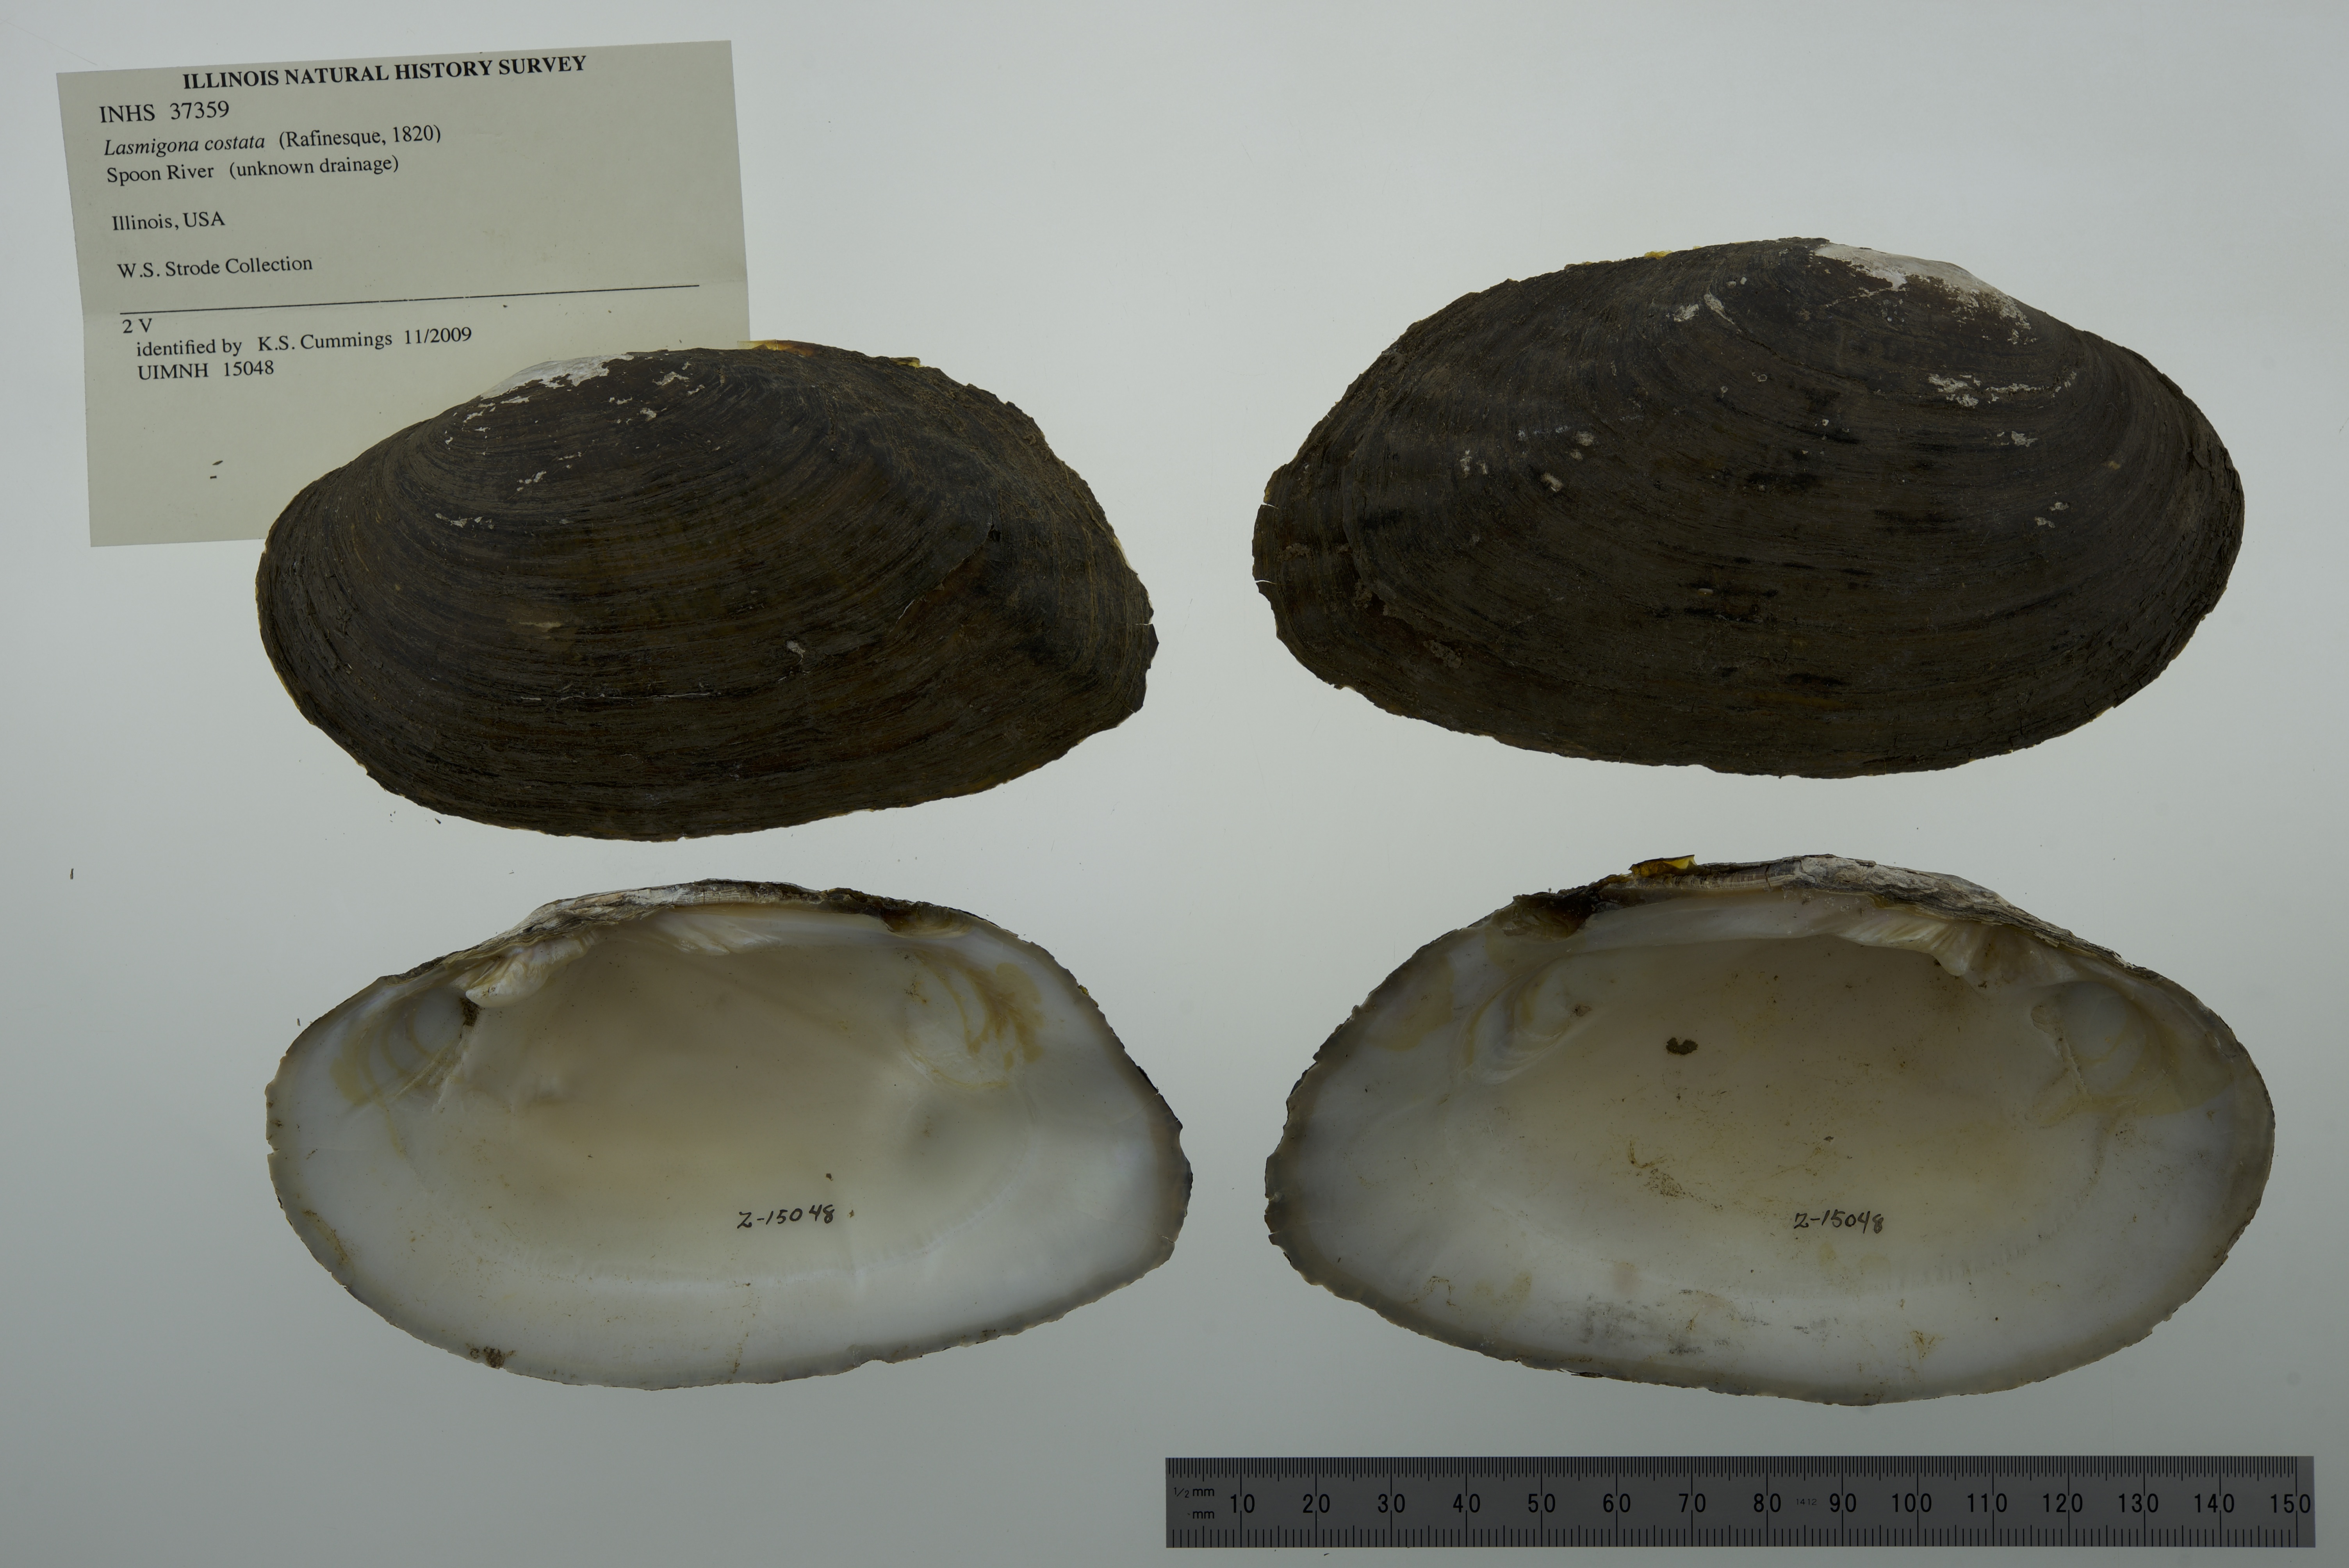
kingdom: Animalia
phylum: Mollusca
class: Bivalvia
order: Unionida
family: Unionidae
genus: Lasmigona
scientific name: Lasmigona costata
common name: Flutedshell
